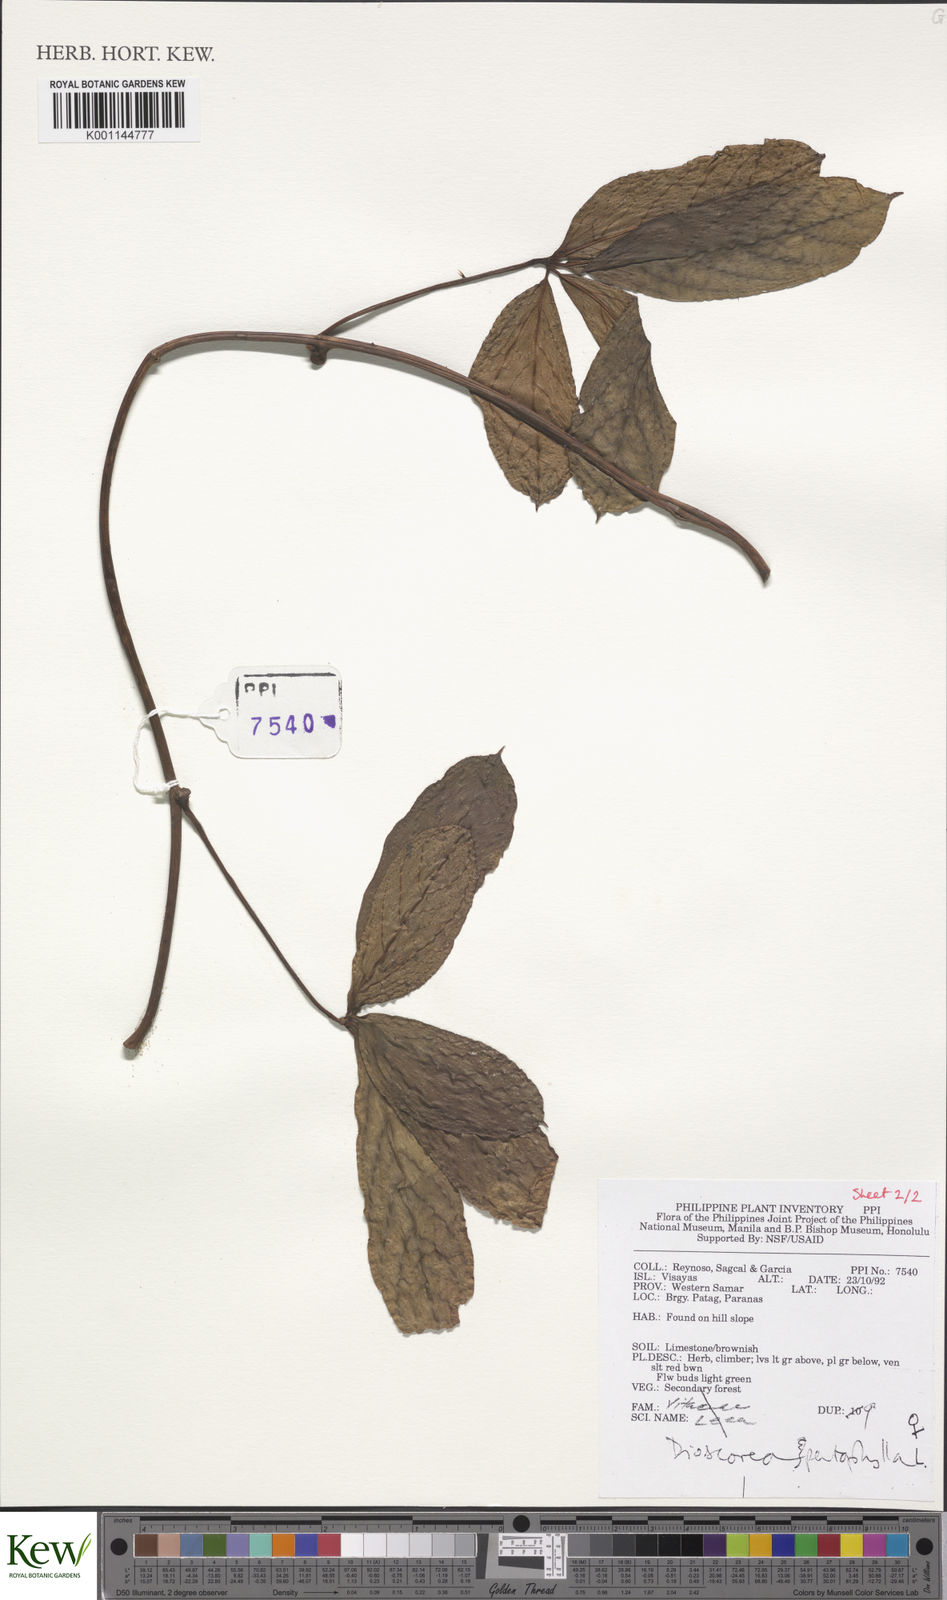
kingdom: Plantae
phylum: Tracheophyta
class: Liliopsida
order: Dioscoreales
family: Dioscoreaceae
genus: Dioscorea
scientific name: Dioscorea pentaphylla
